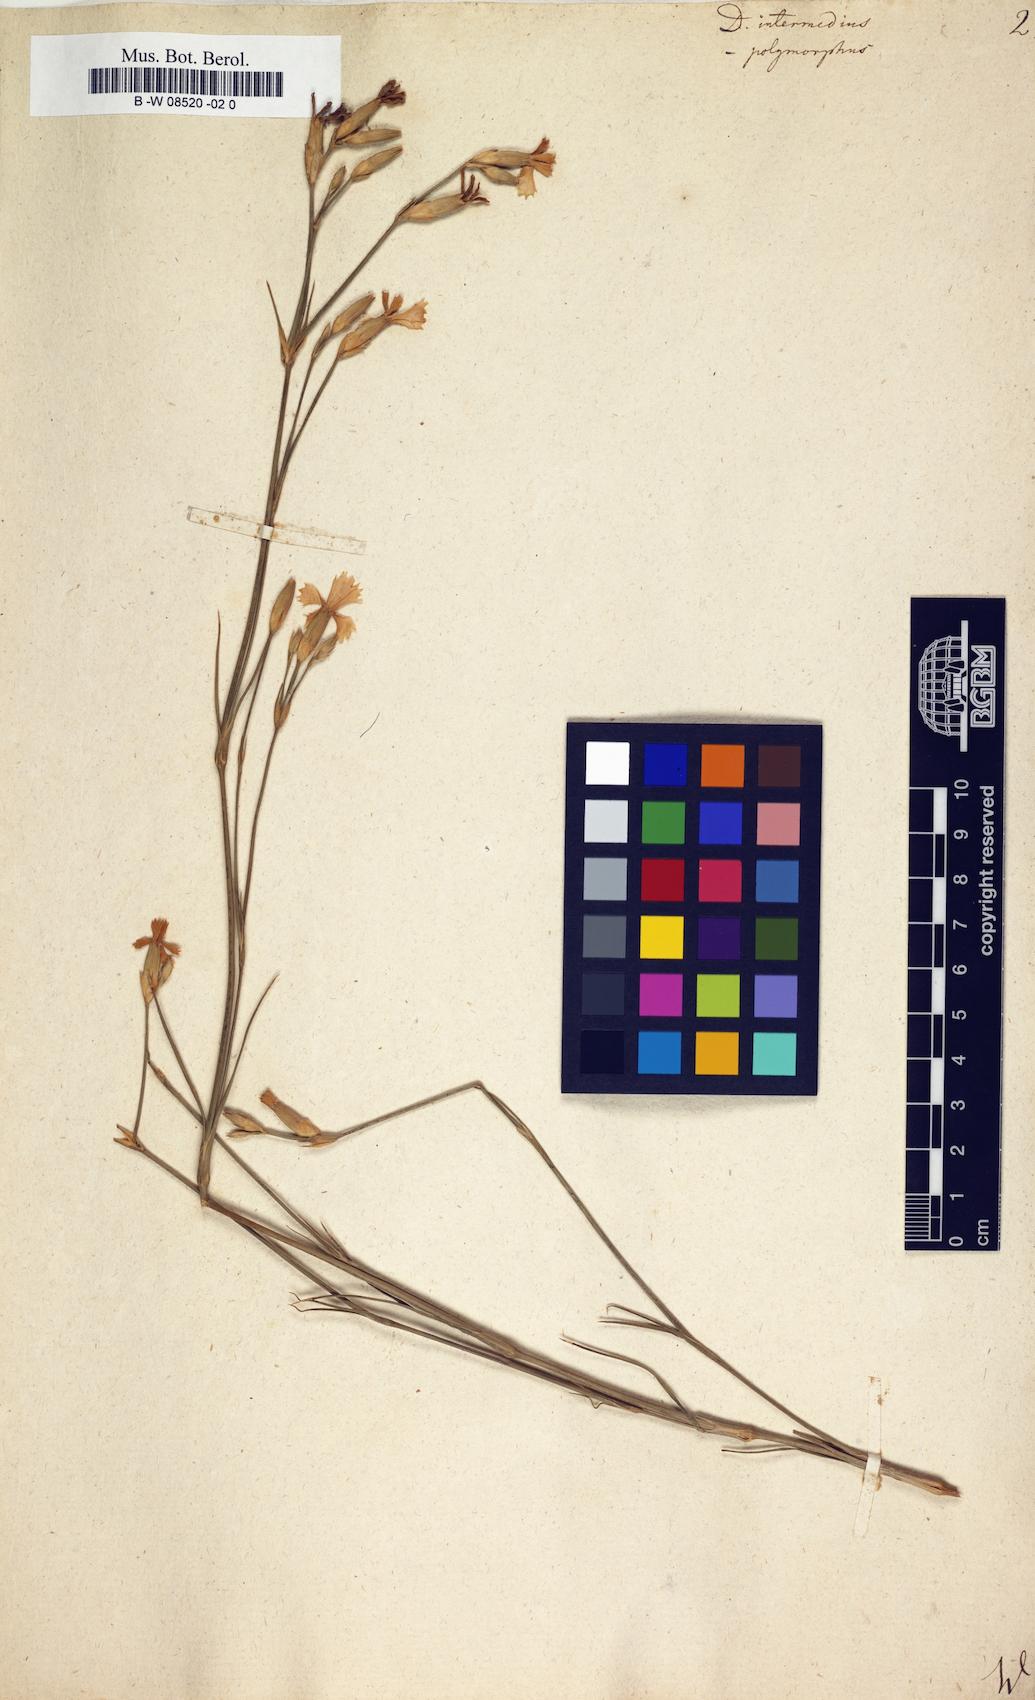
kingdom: Plantae
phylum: Tracheophyta
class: Magnoliopsida
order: Caryophyllales
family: Caryophyllaceae
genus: Dianthus
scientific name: Dianthus
